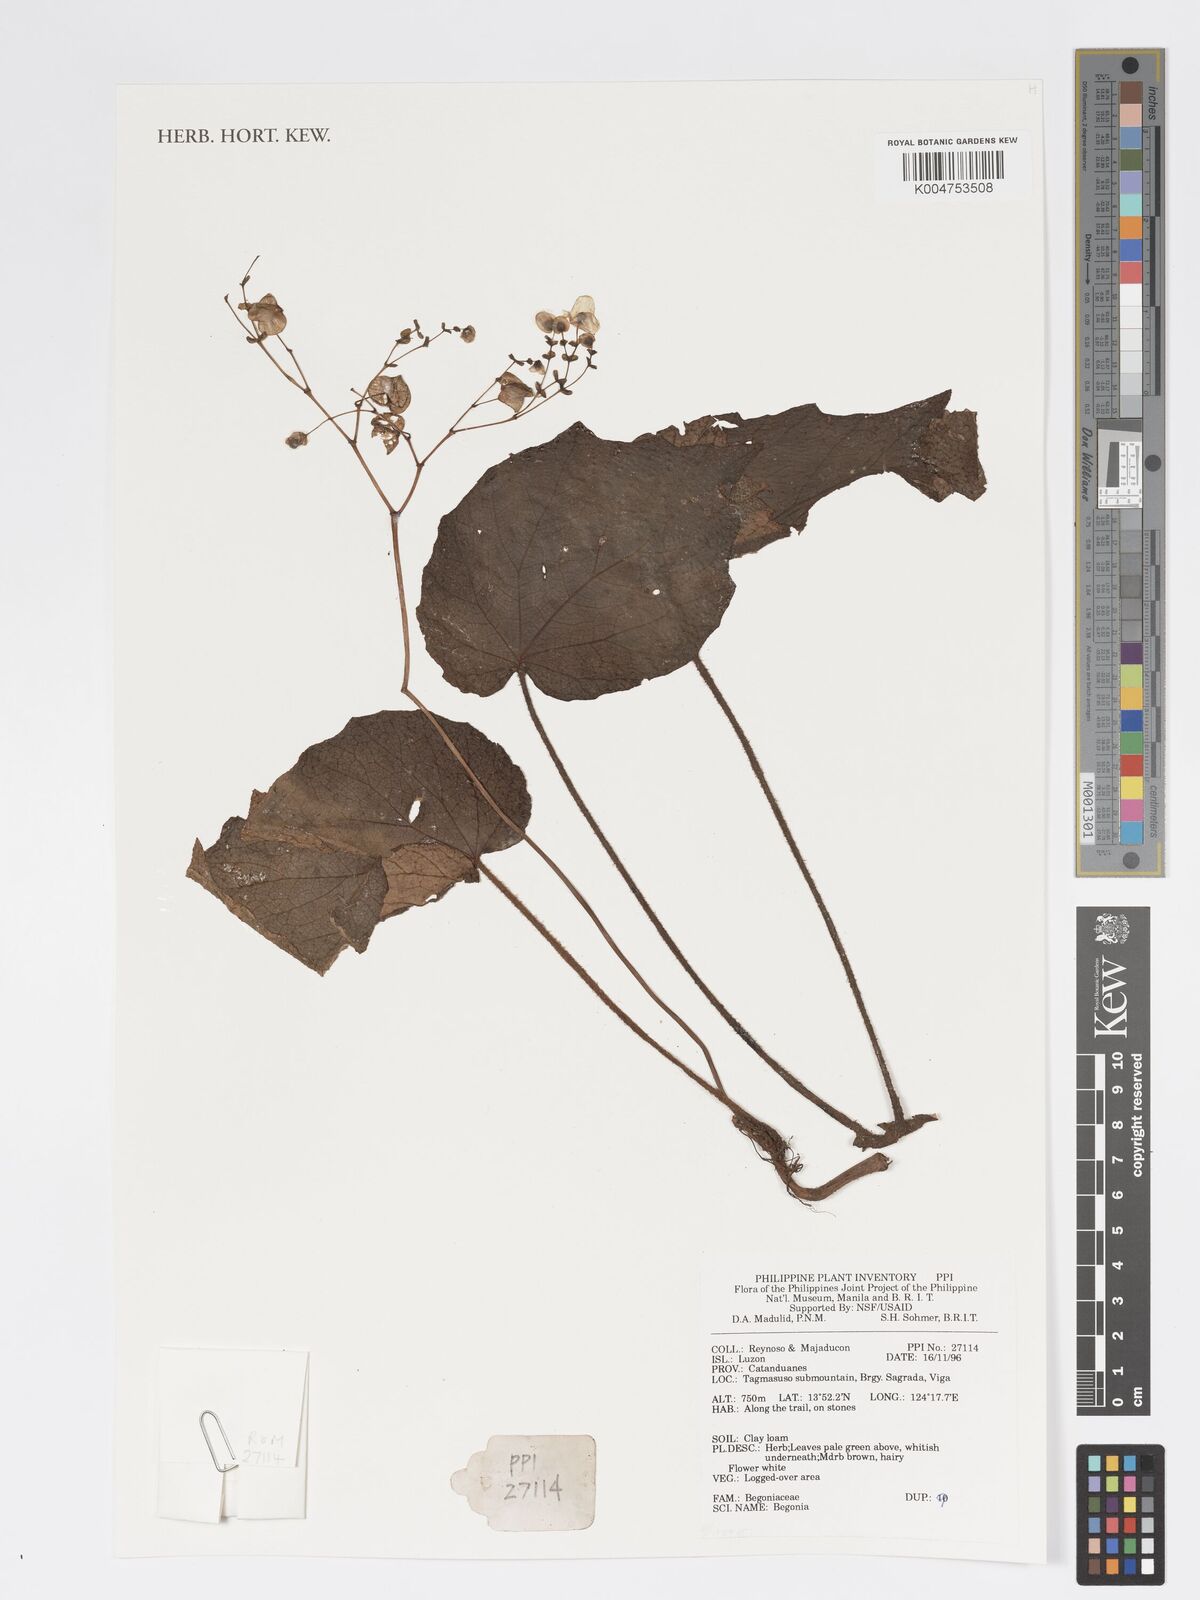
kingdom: Plantae
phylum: Tracheophyta
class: Magnoliopsida
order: Cucurbitales
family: Begoniaceae
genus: Begonia
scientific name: Begonia
